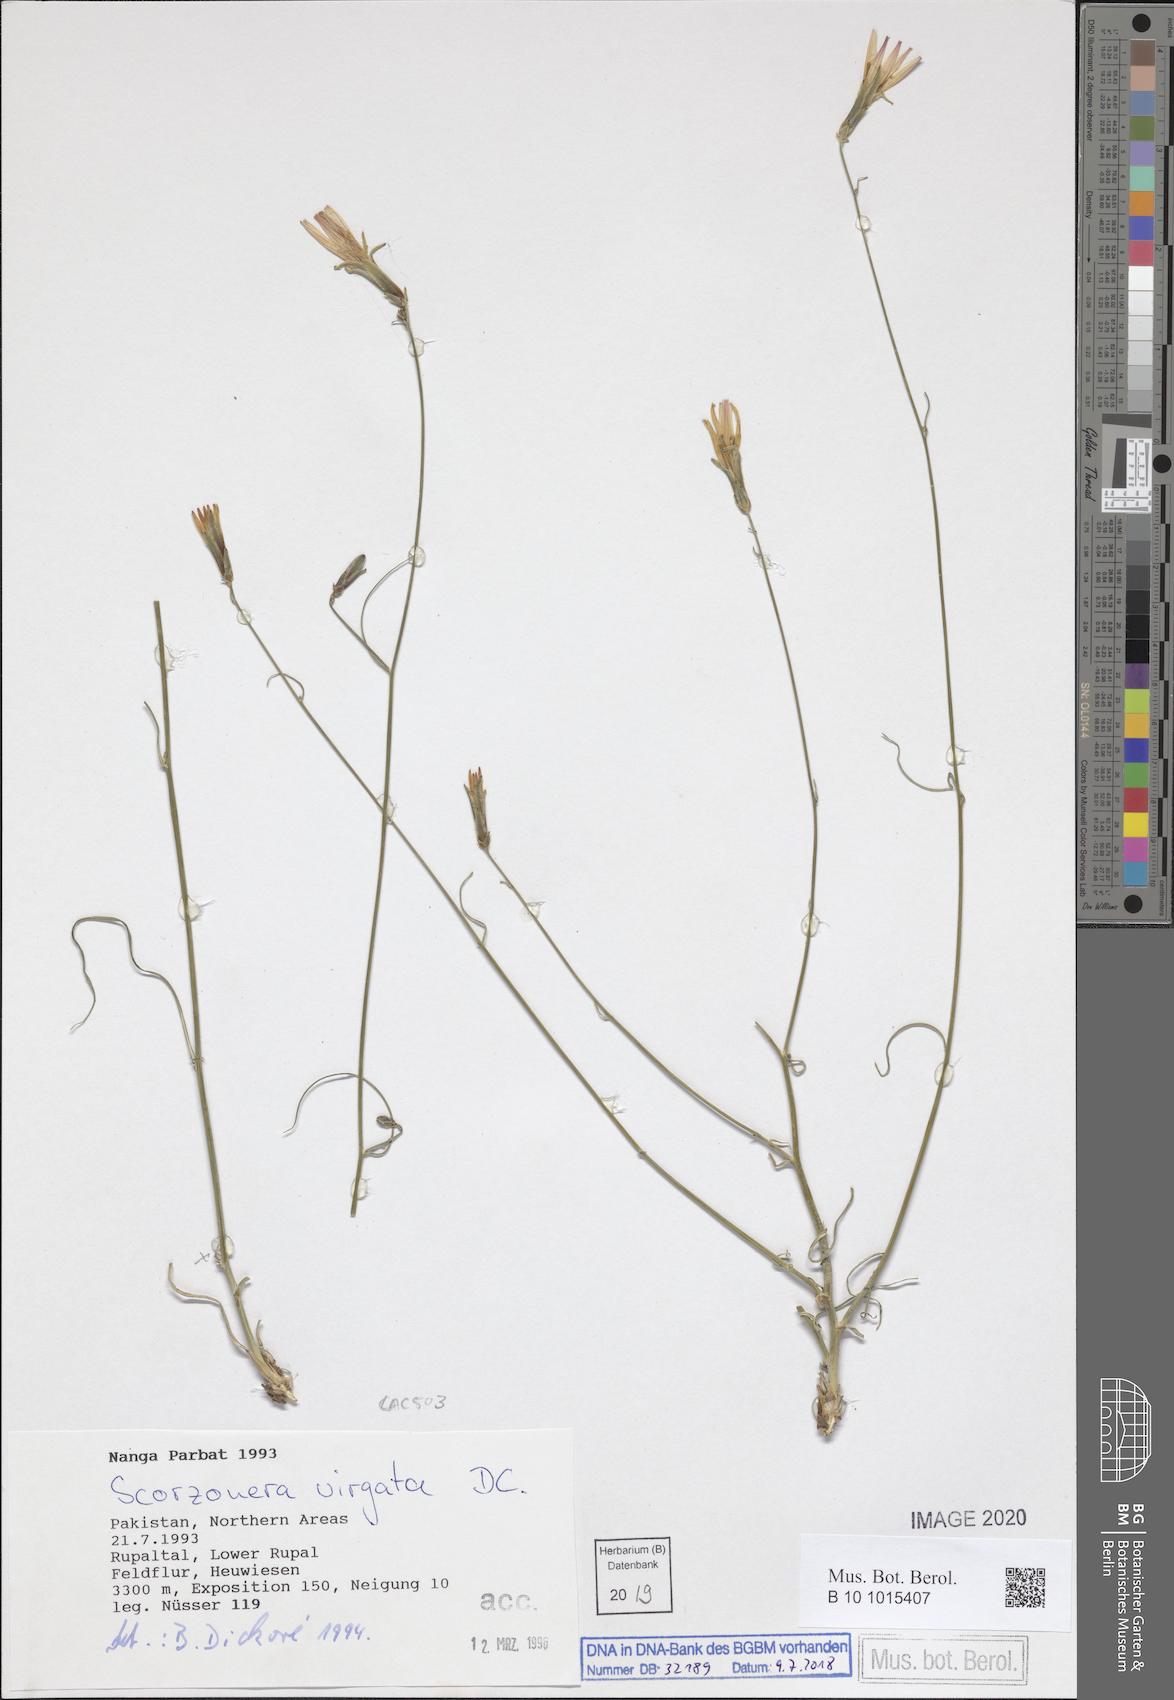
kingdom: Plantae
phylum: Tracheophyta
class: Magnoliopsida
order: Asterales
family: Asteraceae
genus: Scorzonera
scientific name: Scorzonera virgata
